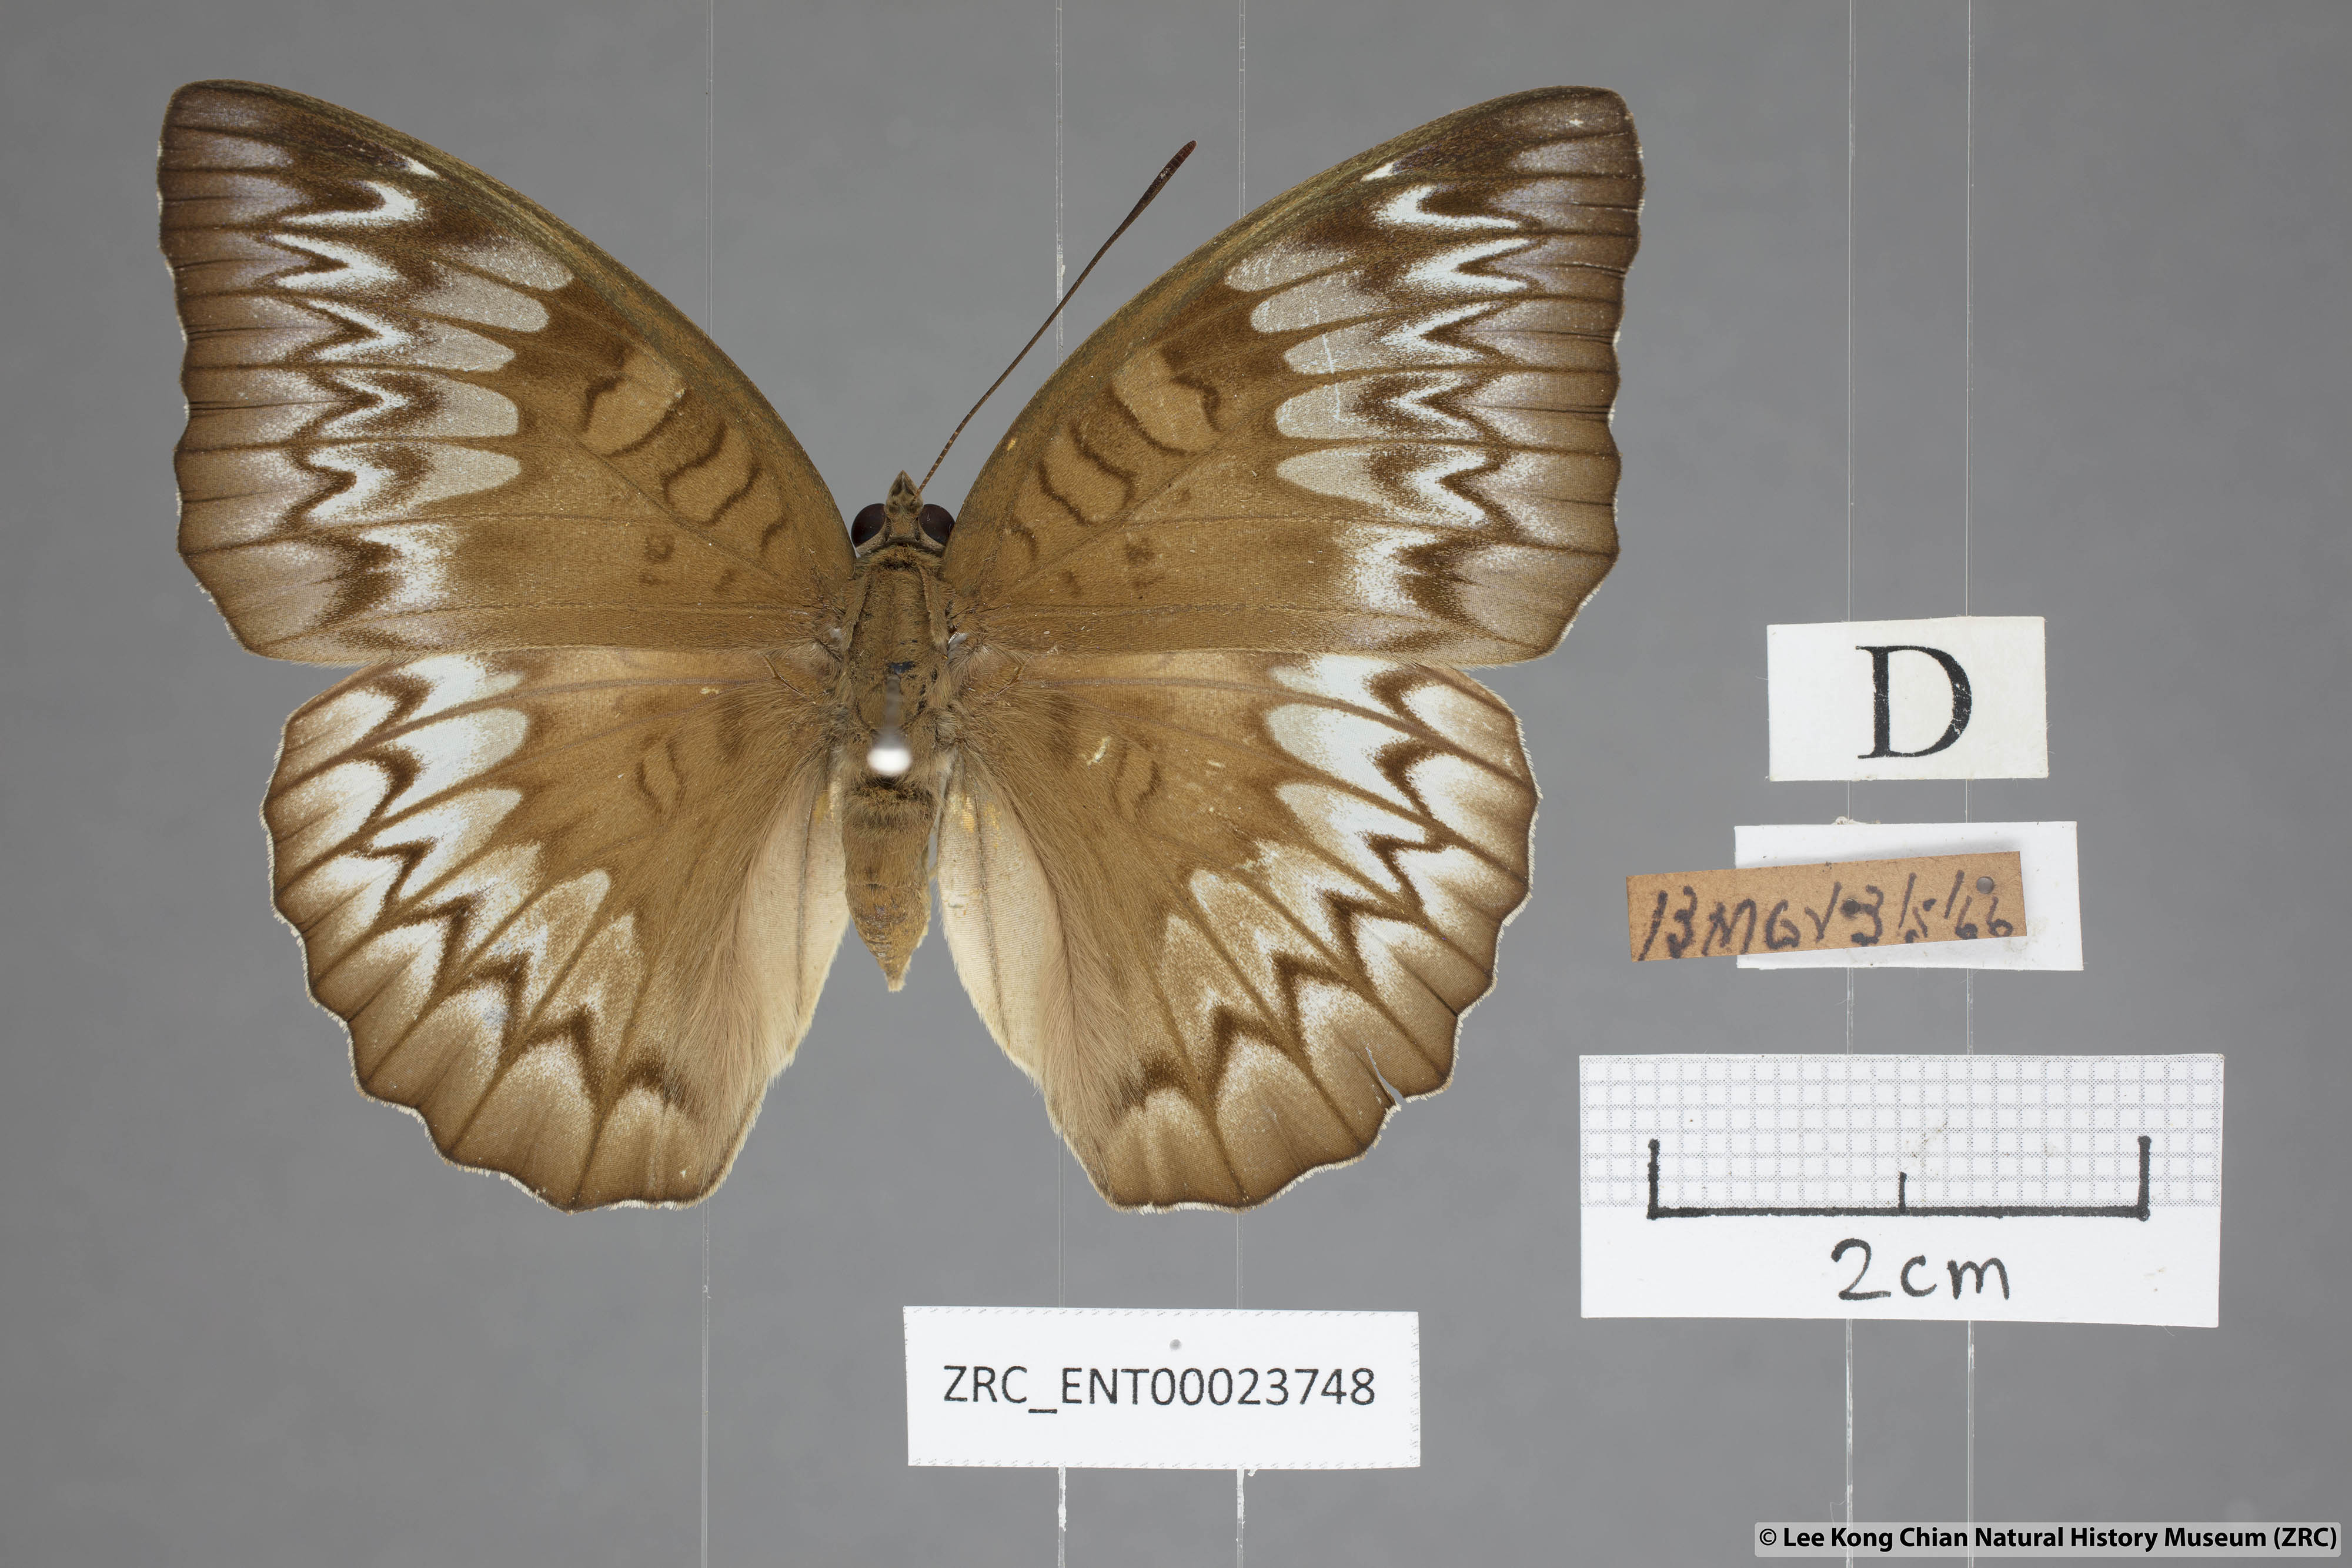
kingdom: Animalia
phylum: Arthropoda
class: Insecta
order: Lepidoptera
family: Nymphalidae
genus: Euthalia
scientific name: Euthalia monina
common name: Powdered baron
